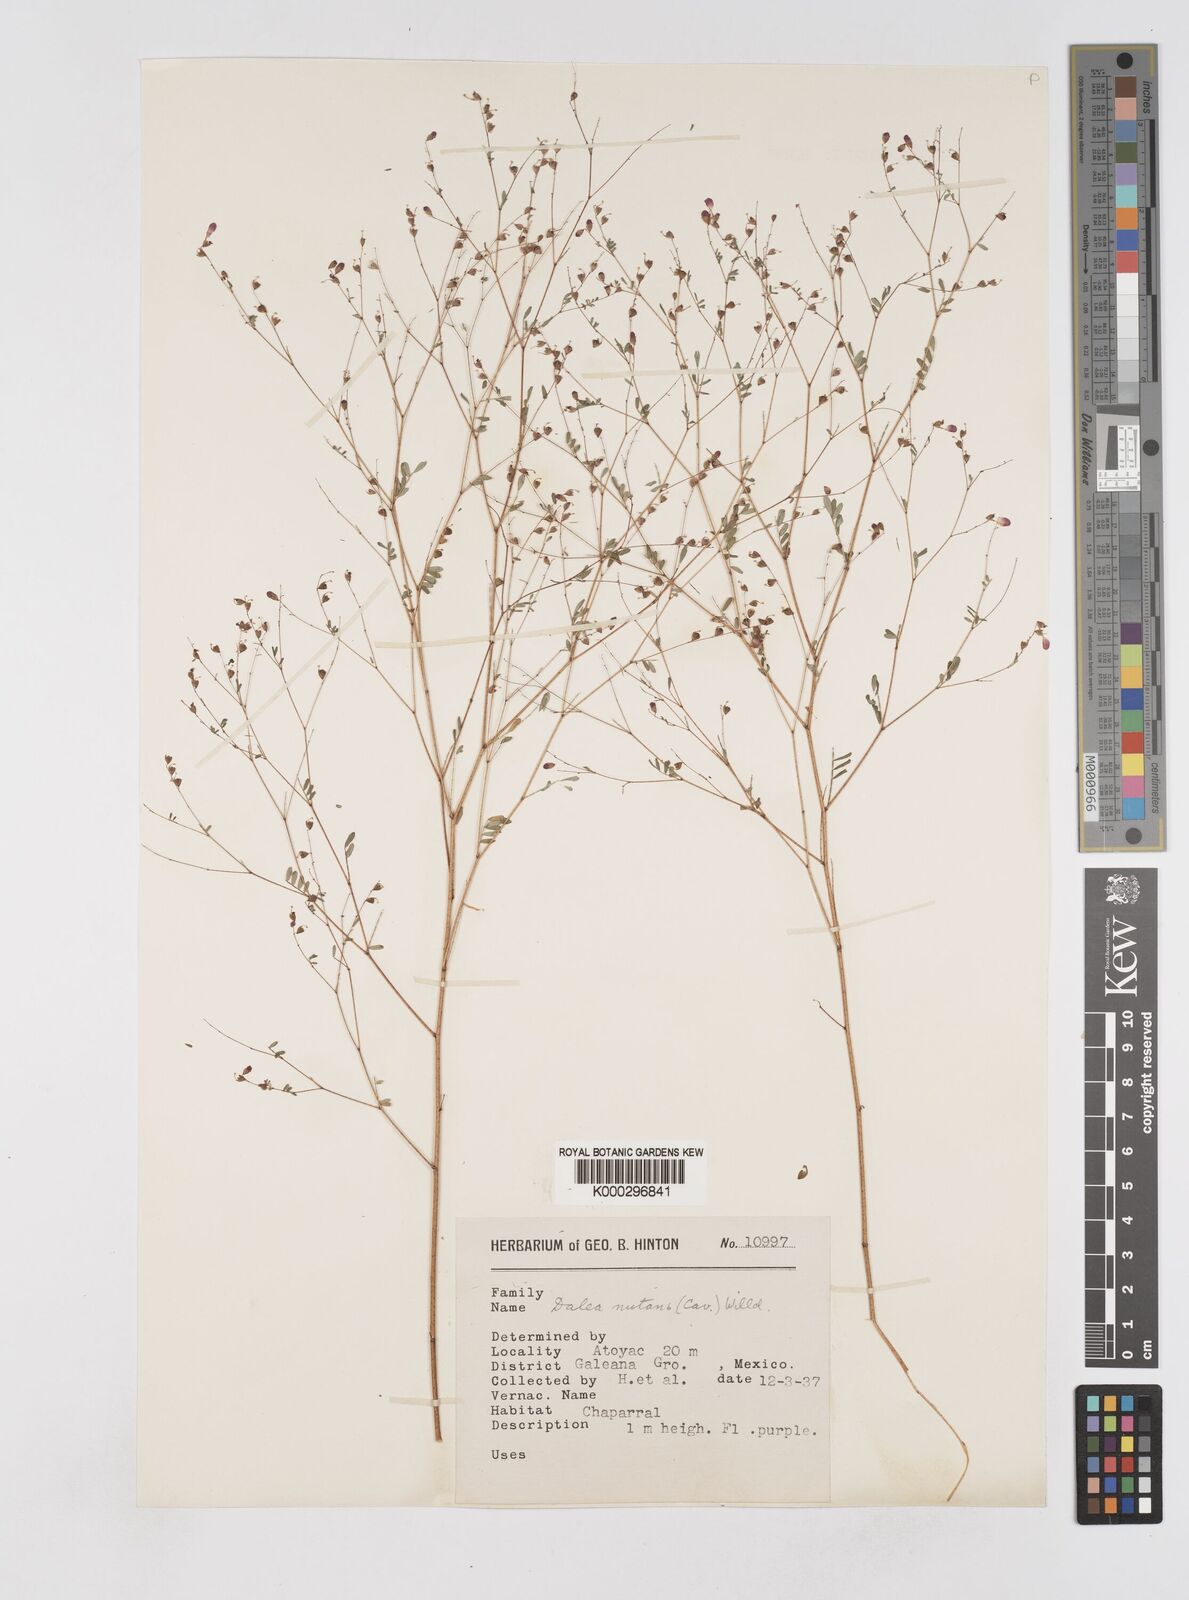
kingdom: Plantae
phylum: Tracheophyta
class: Magnoliopsida
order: Fabales
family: Fabaceae
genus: Marina
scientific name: Marina nutans
